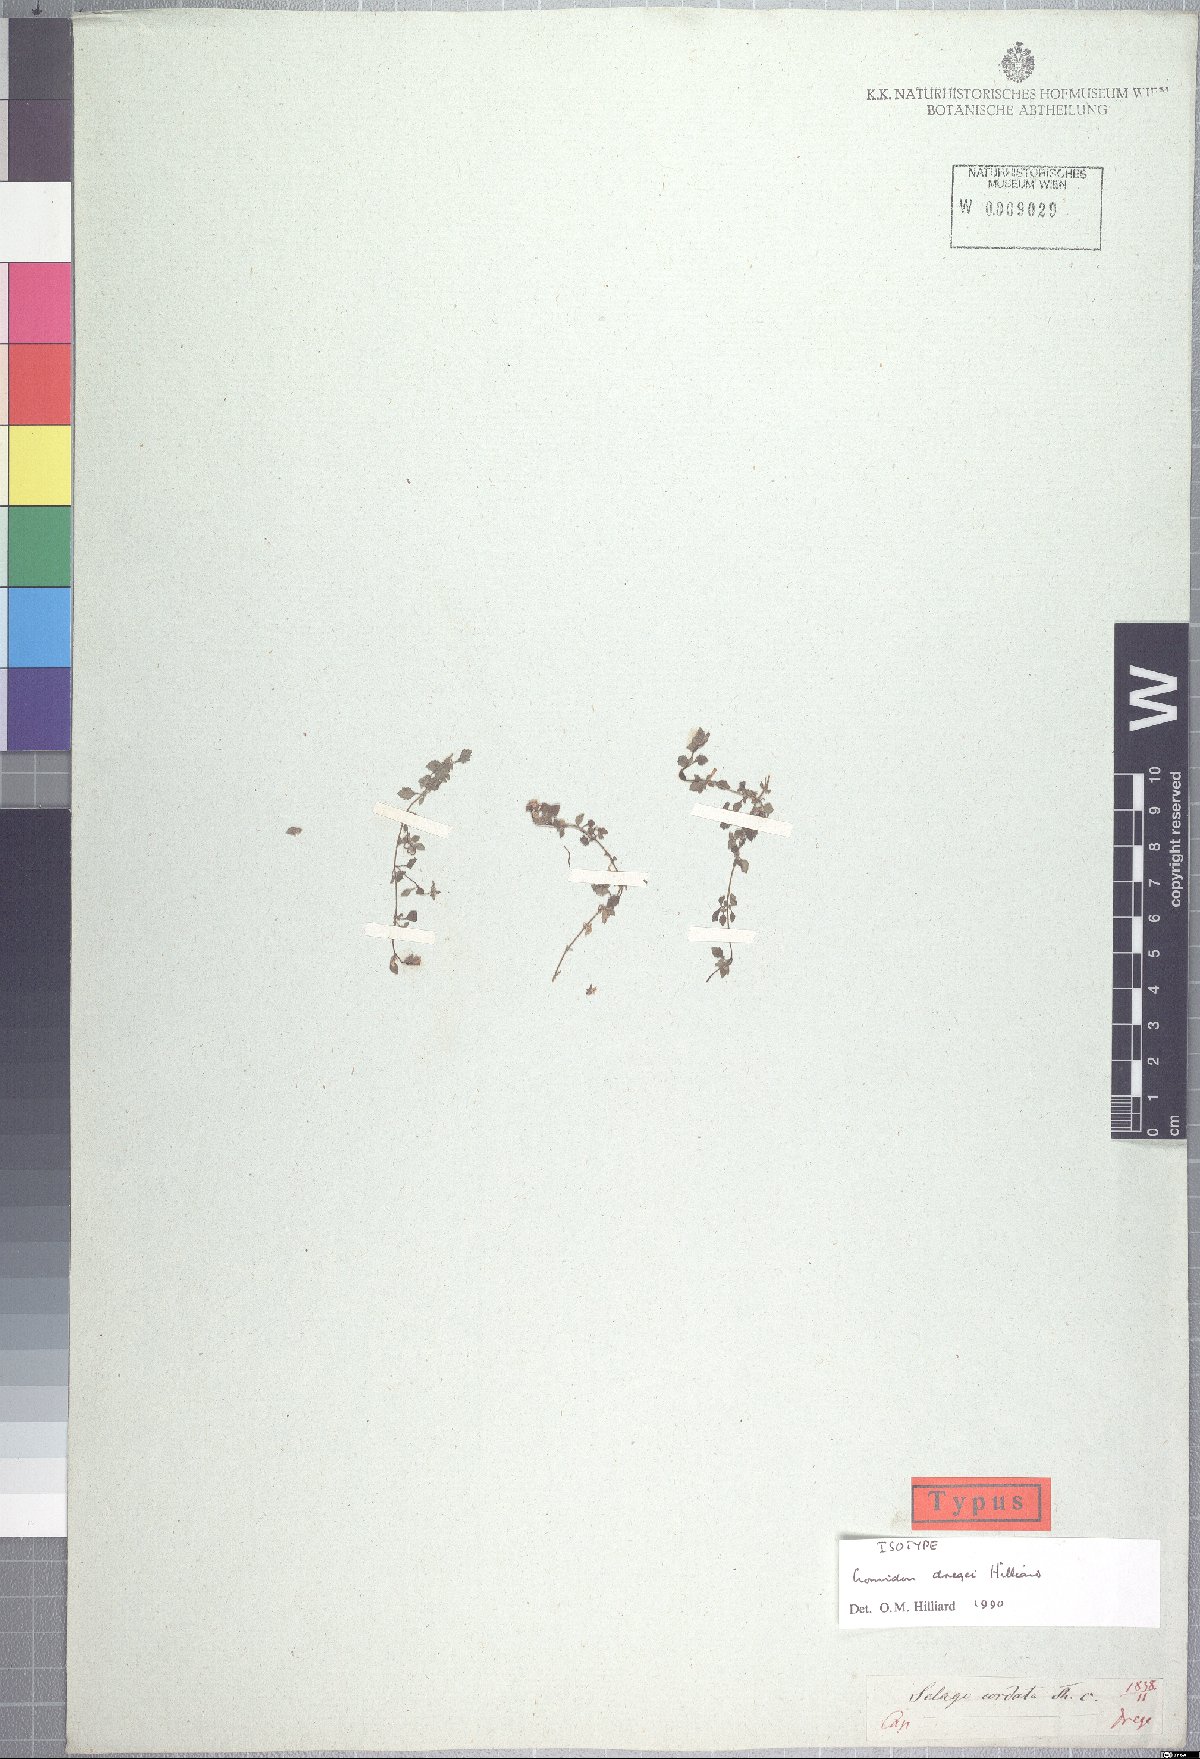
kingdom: Plantae
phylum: Tracheophyta
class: Magnoliopsida
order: Lamiales
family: Scrophulariaceae
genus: Cromidon
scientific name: Cromidon dregei
